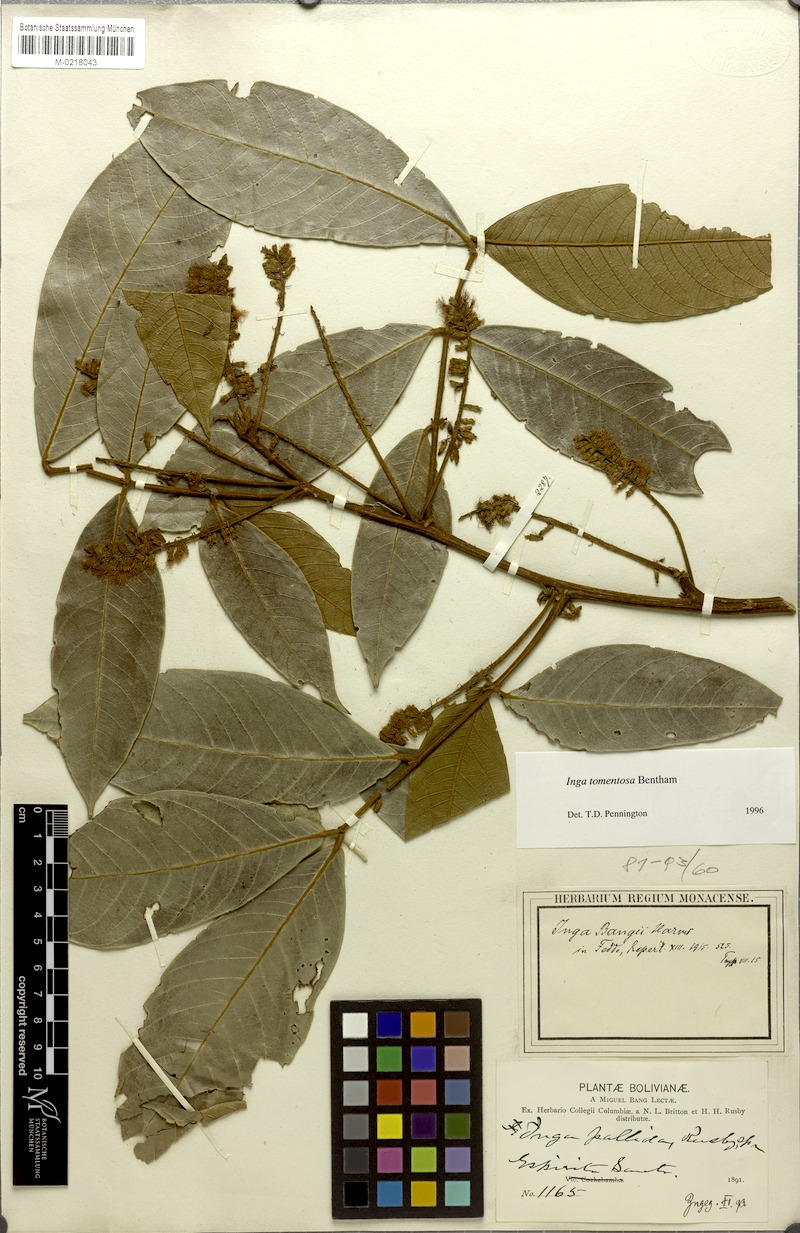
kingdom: Plantae
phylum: Tracheophyta
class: Magnoliopsida
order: Fabales
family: Fabaceae
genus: Inga
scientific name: Inga tomentosa
